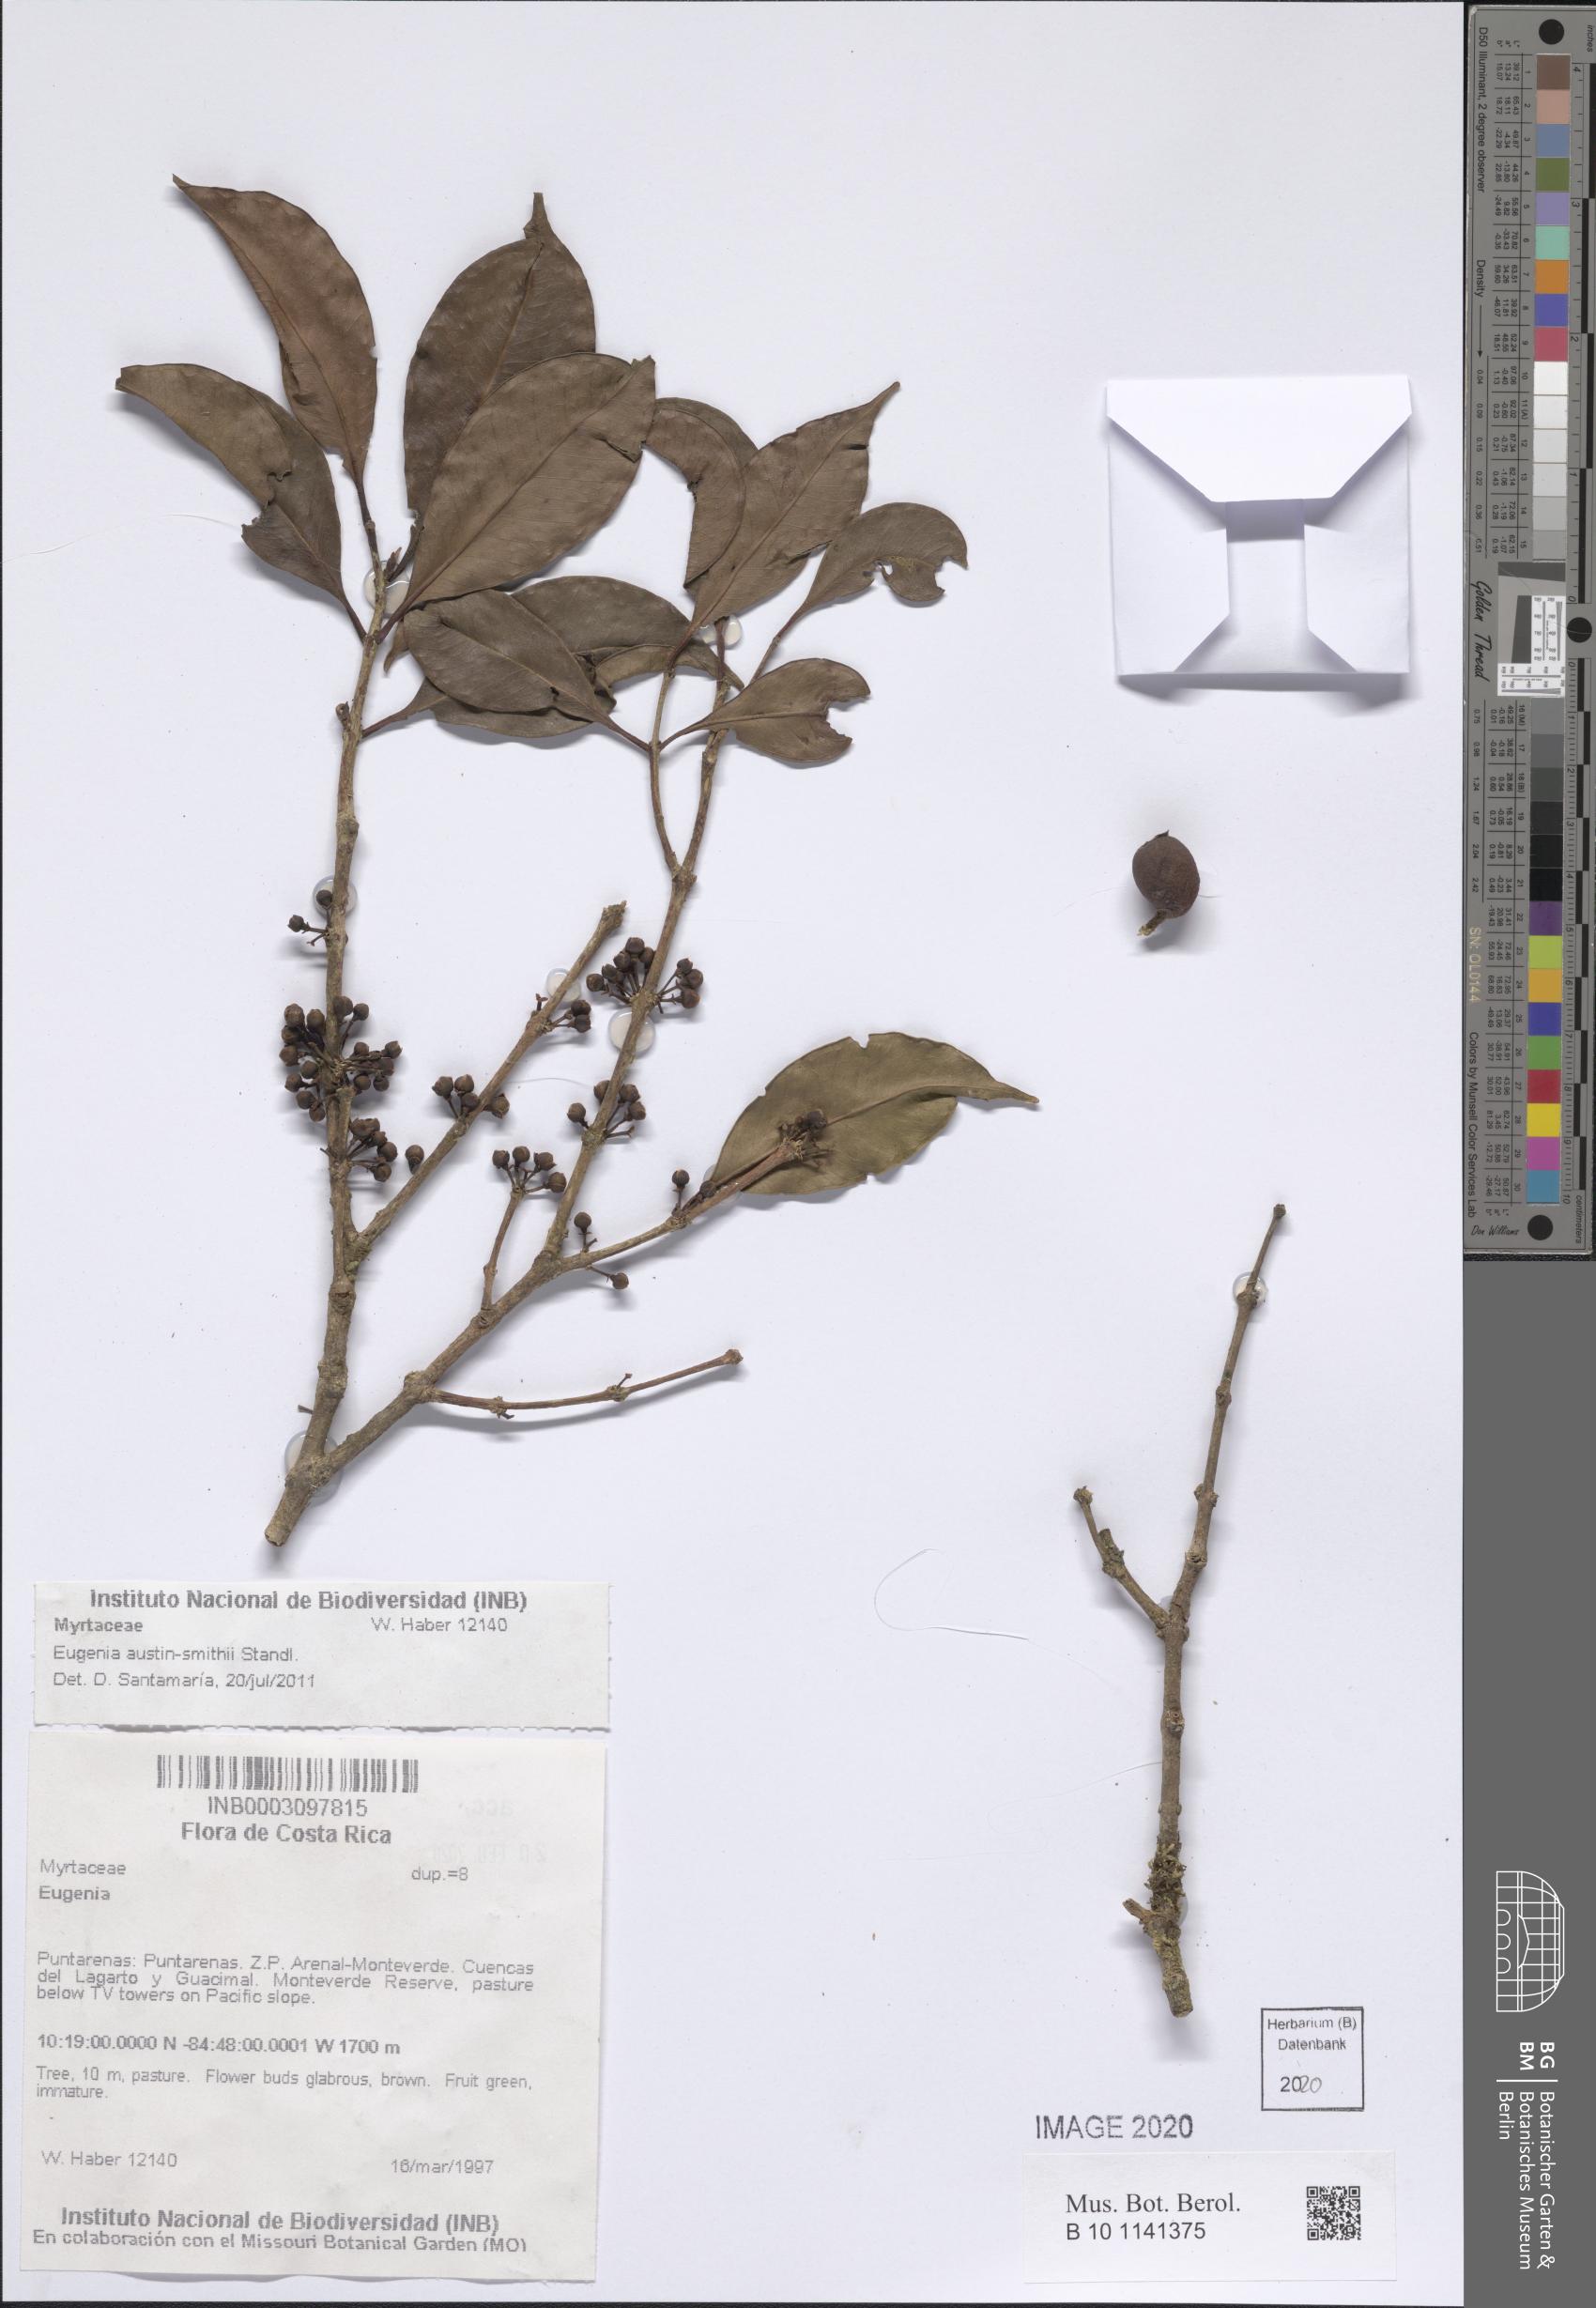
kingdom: Plantae
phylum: Tracheophyta
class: Magnoliopsida
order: Myrtales
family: Myrtaceae
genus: Eugenia
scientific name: Eugenia austin-smithii
